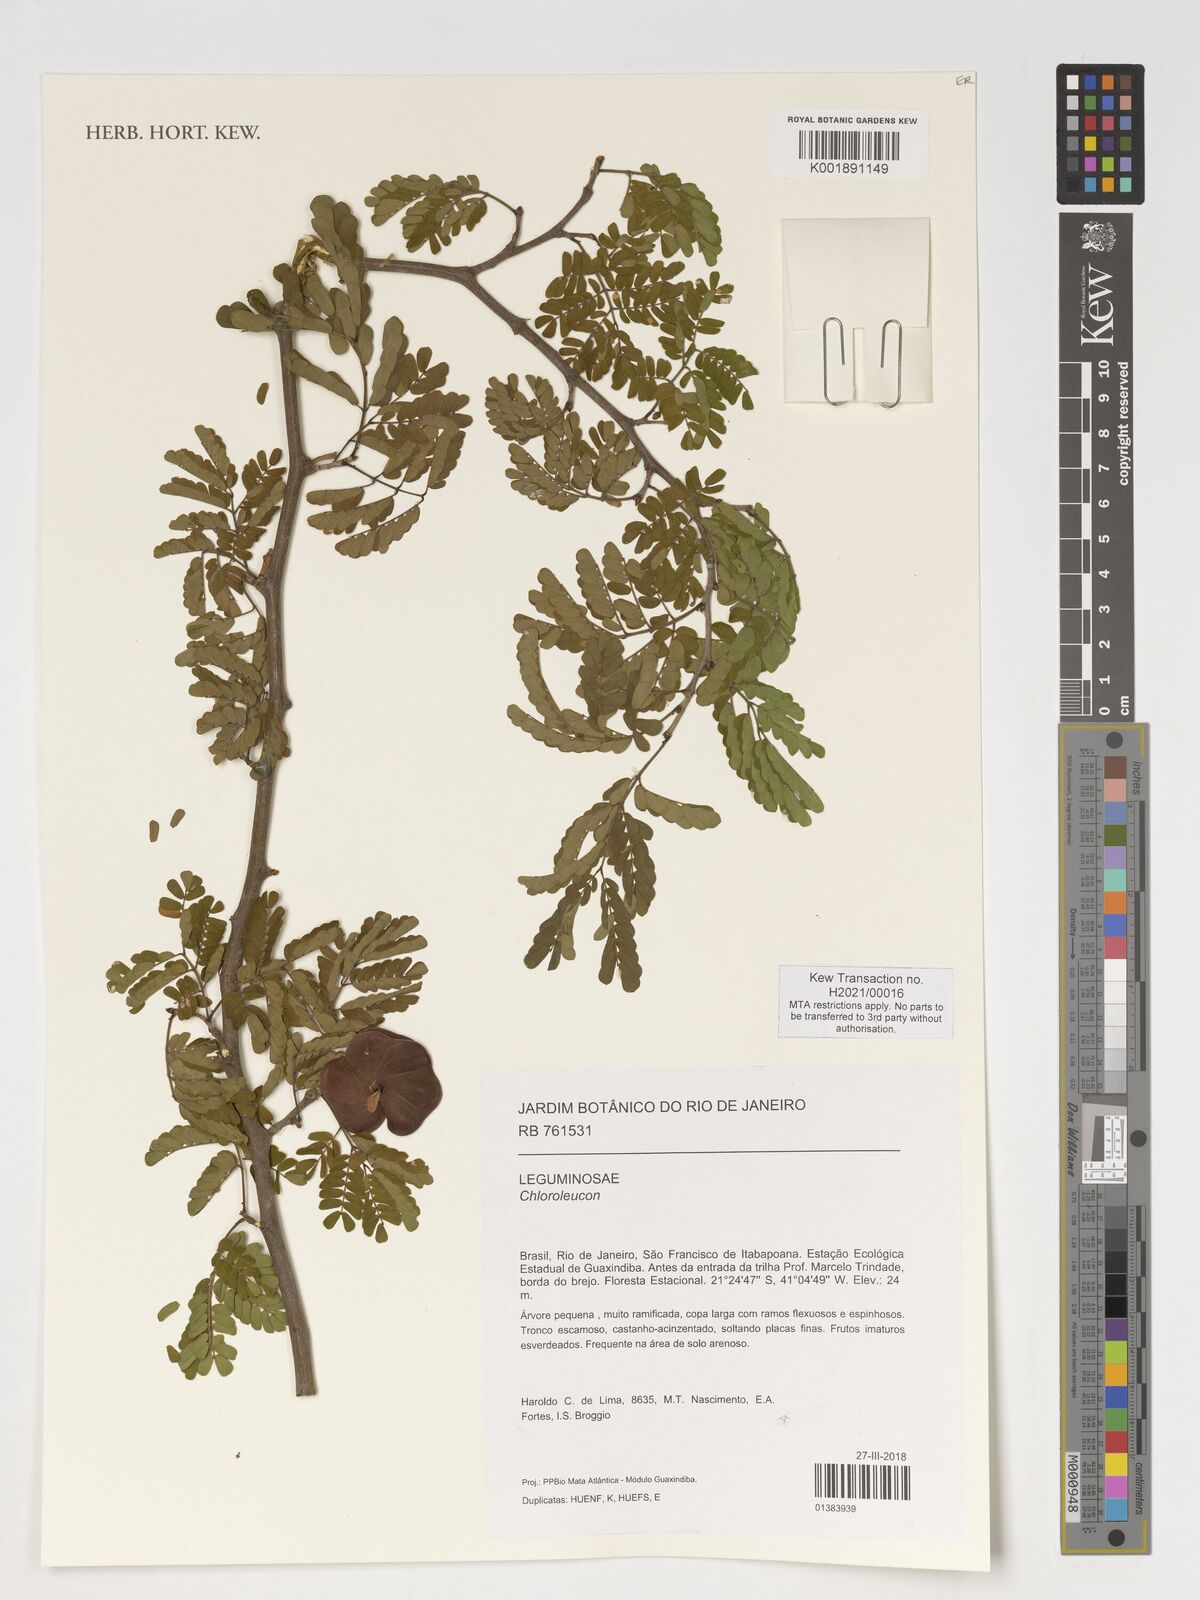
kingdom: Plantae
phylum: Tracheophyta
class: Magnoliopsida
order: Fabales
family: Fabaceae
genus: Chloroleucon
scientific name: Chloroleucon
